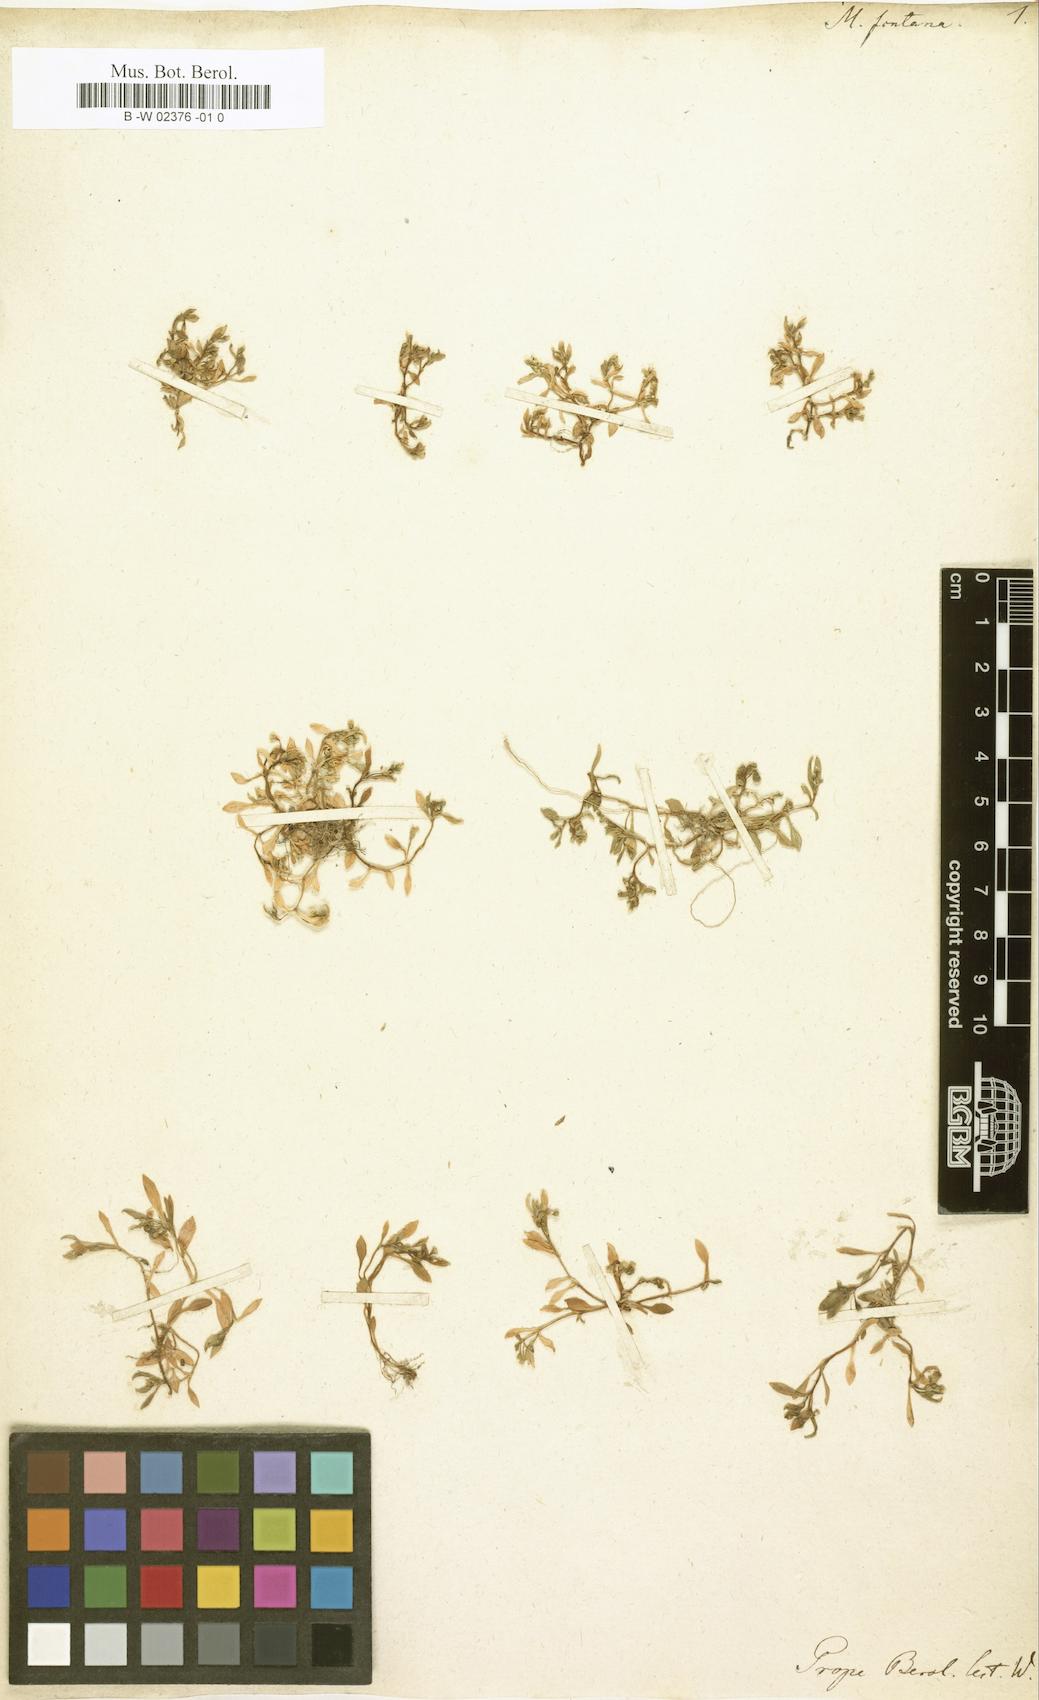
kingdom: Plantae
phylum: Tracheophyta
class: Magnoliopsida
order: Caryophyllales
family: Montiaceae
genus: Montia
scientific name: Montia fontana
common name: Blinks
